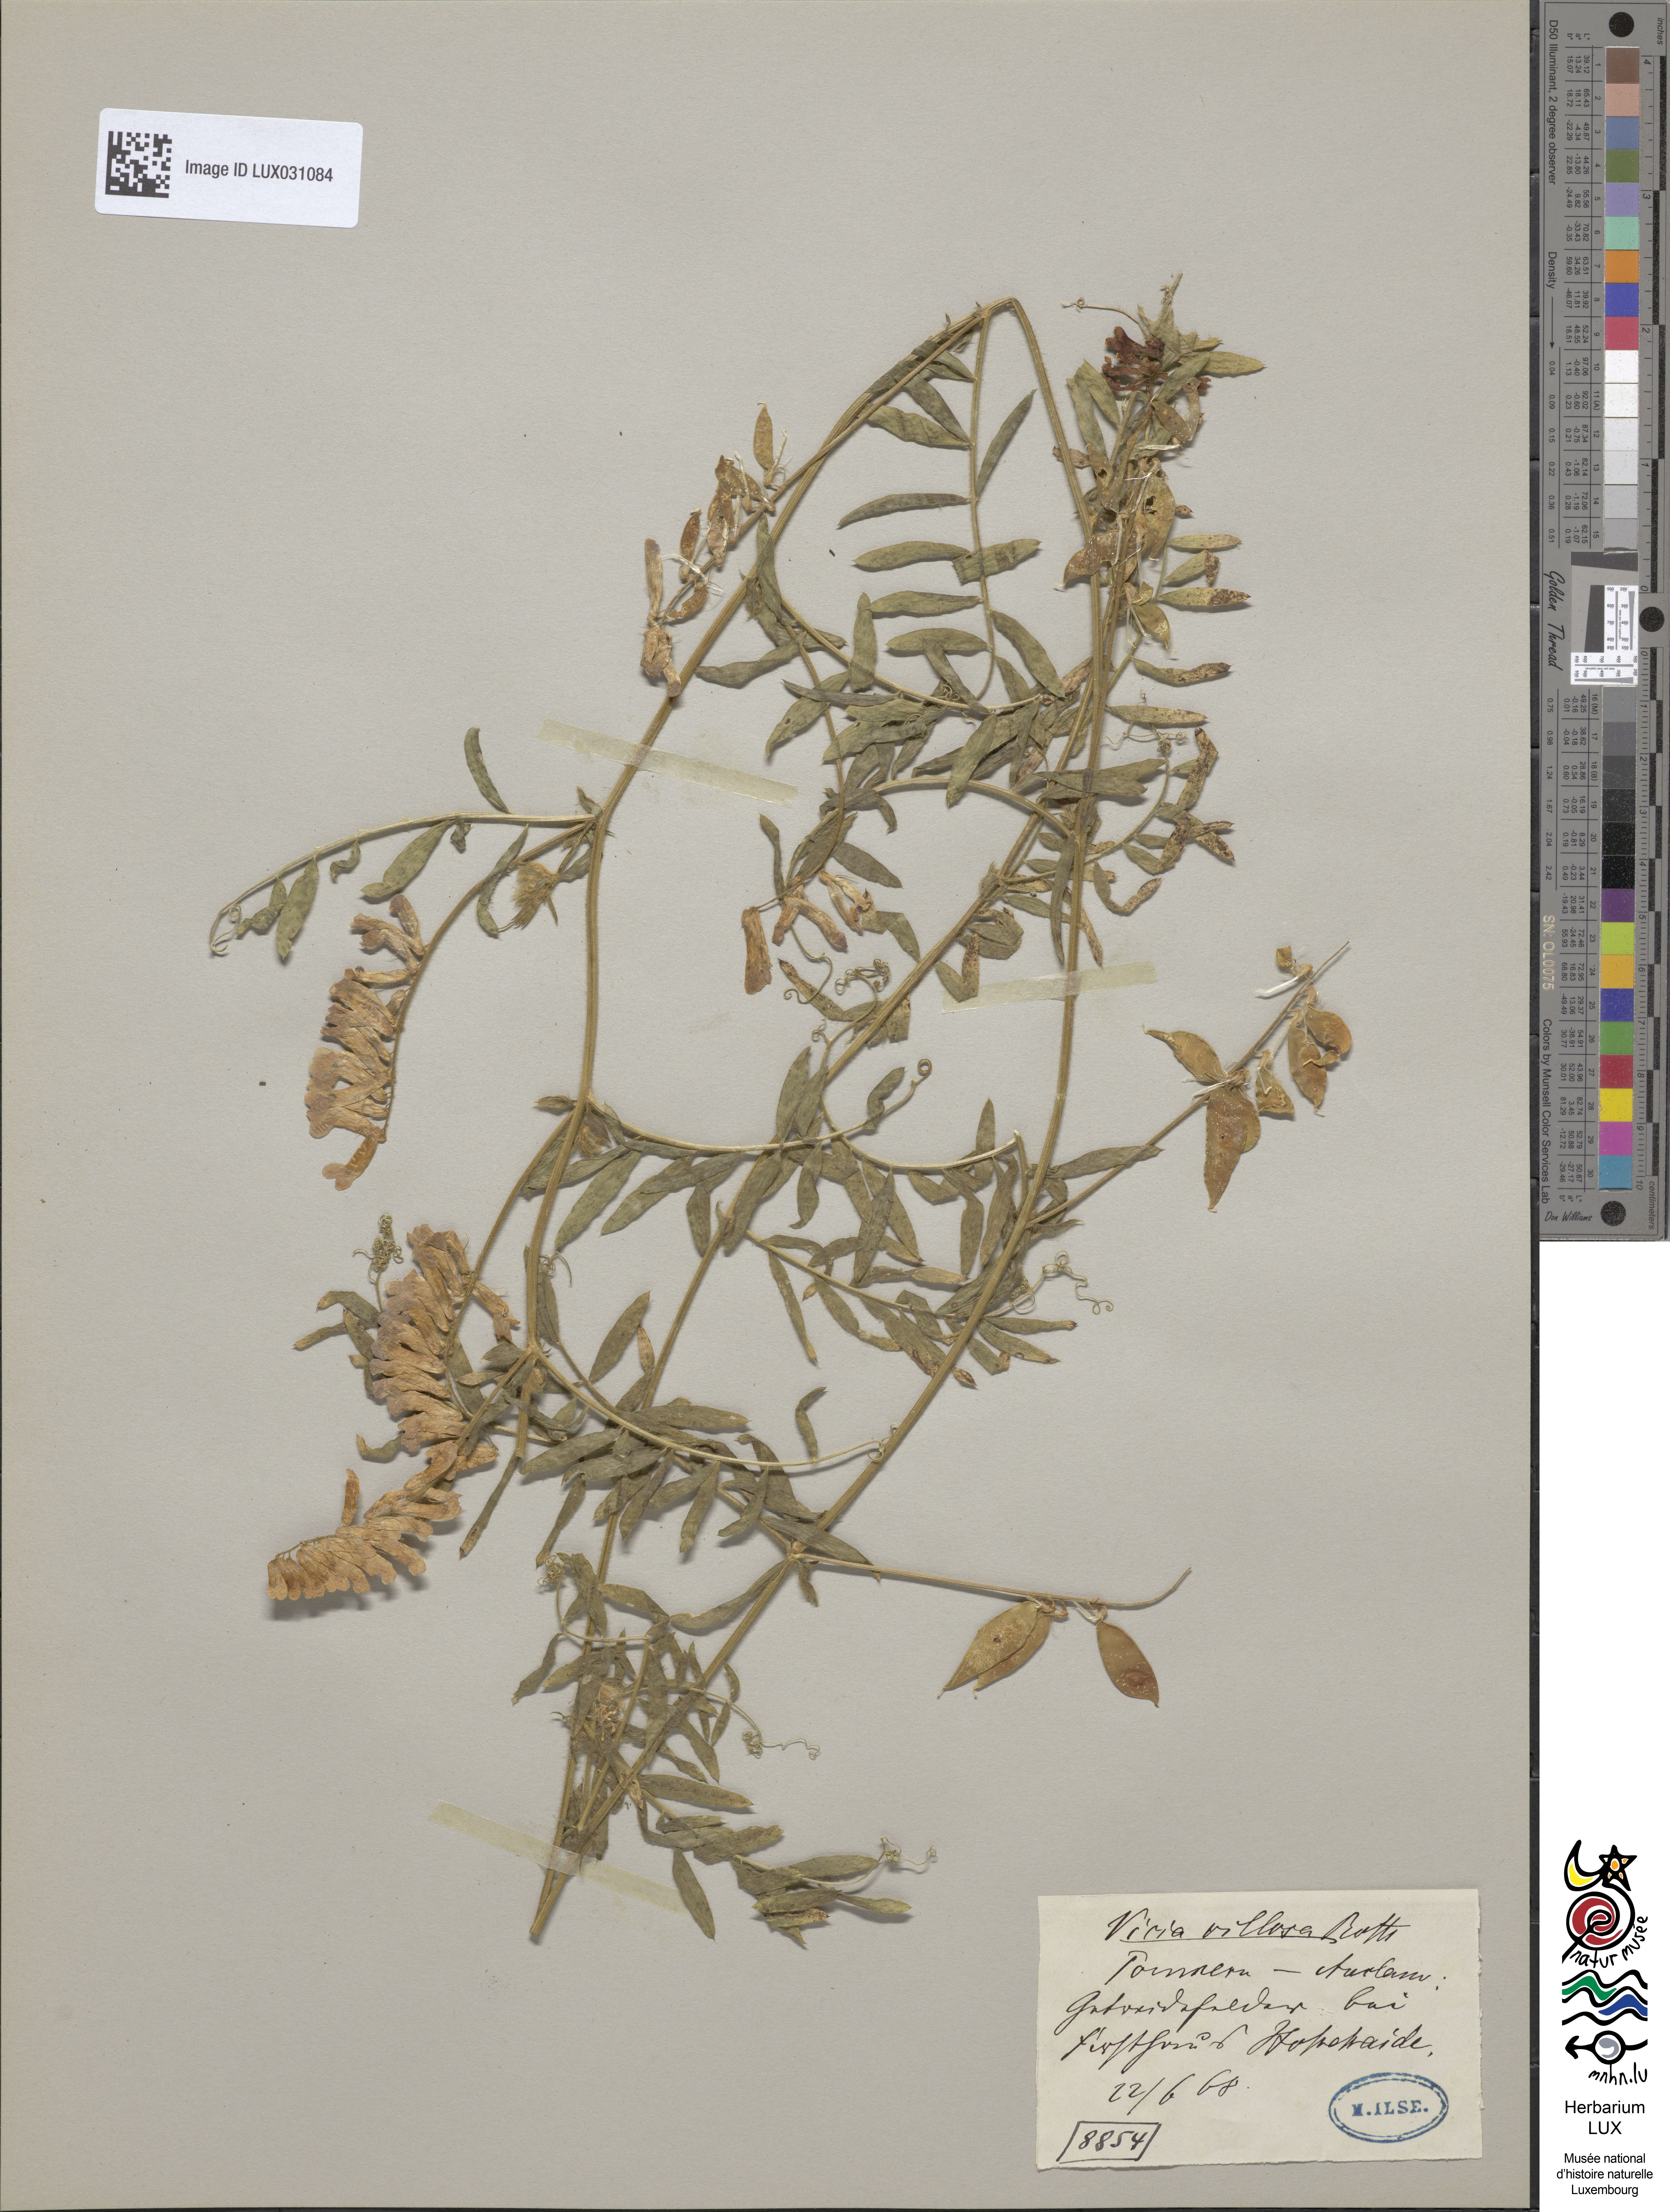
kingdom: Plantae
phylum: Tracheophyta
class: Magnoliopsida
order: Fabales
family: Fabaceae
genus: Vicia
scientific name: Vicia villosa
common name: Fodder vetch
